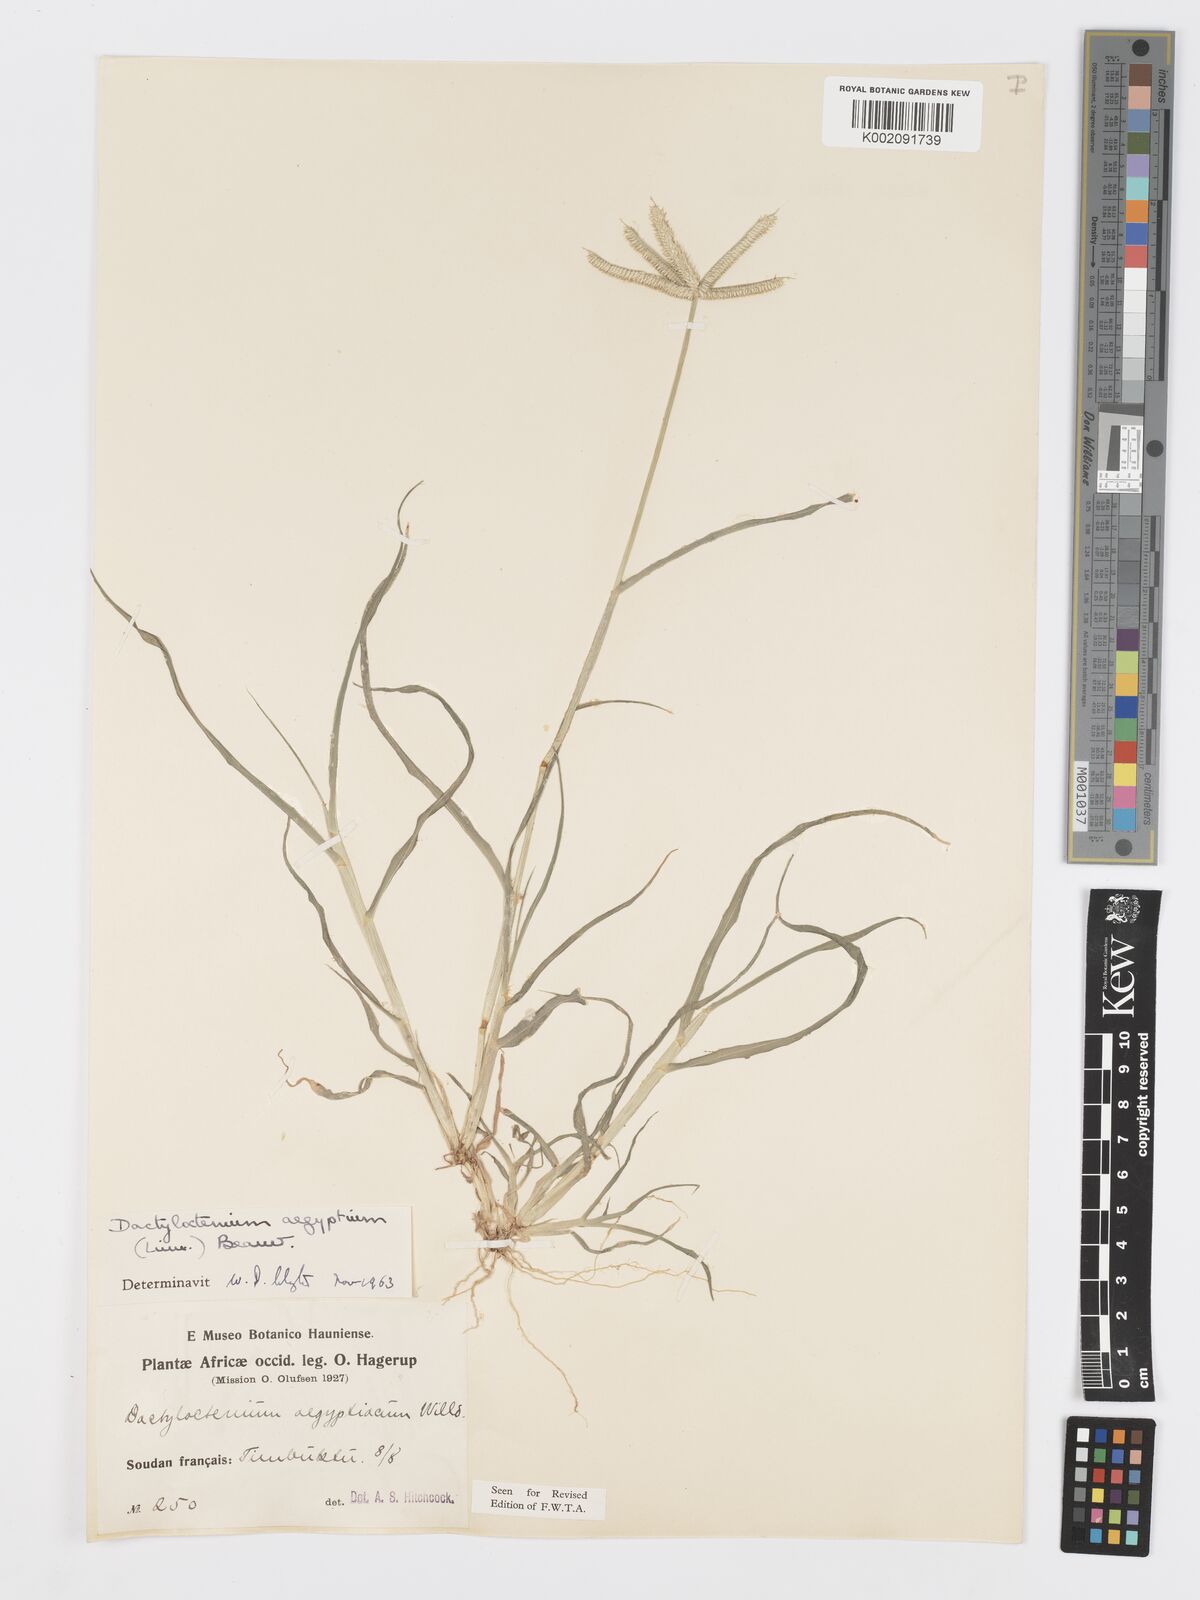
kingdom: Plantae
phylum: Tracheophyta
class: Liliopsida
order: Poales
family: Poaceae
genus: Dactyloctenium
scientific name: Dactyloctenium aegyptium
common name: Egyptian grass
